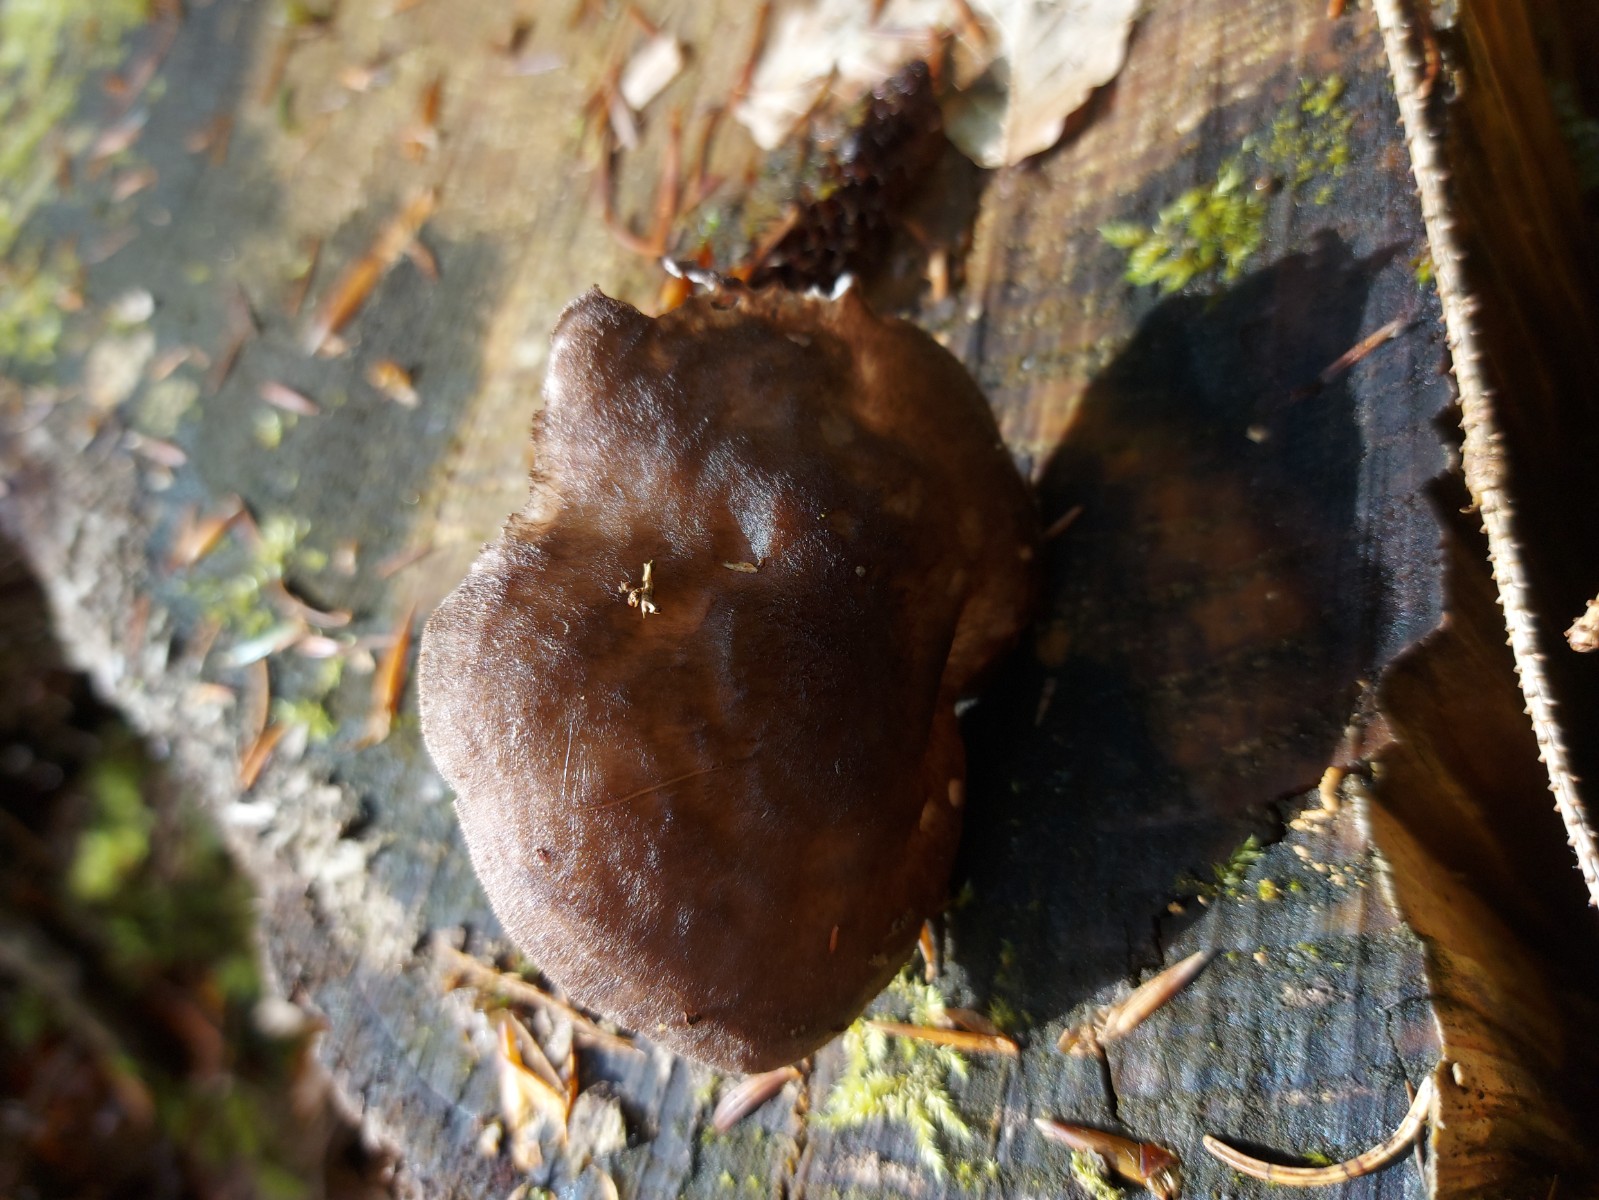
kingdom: Fungi
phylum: Basidiomycota
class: Agaricomycetes
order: Agaricales
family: Pluteaceae
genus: Pluteus
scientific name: Pluteus atromarginatus
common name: sortrandet skærmhat
